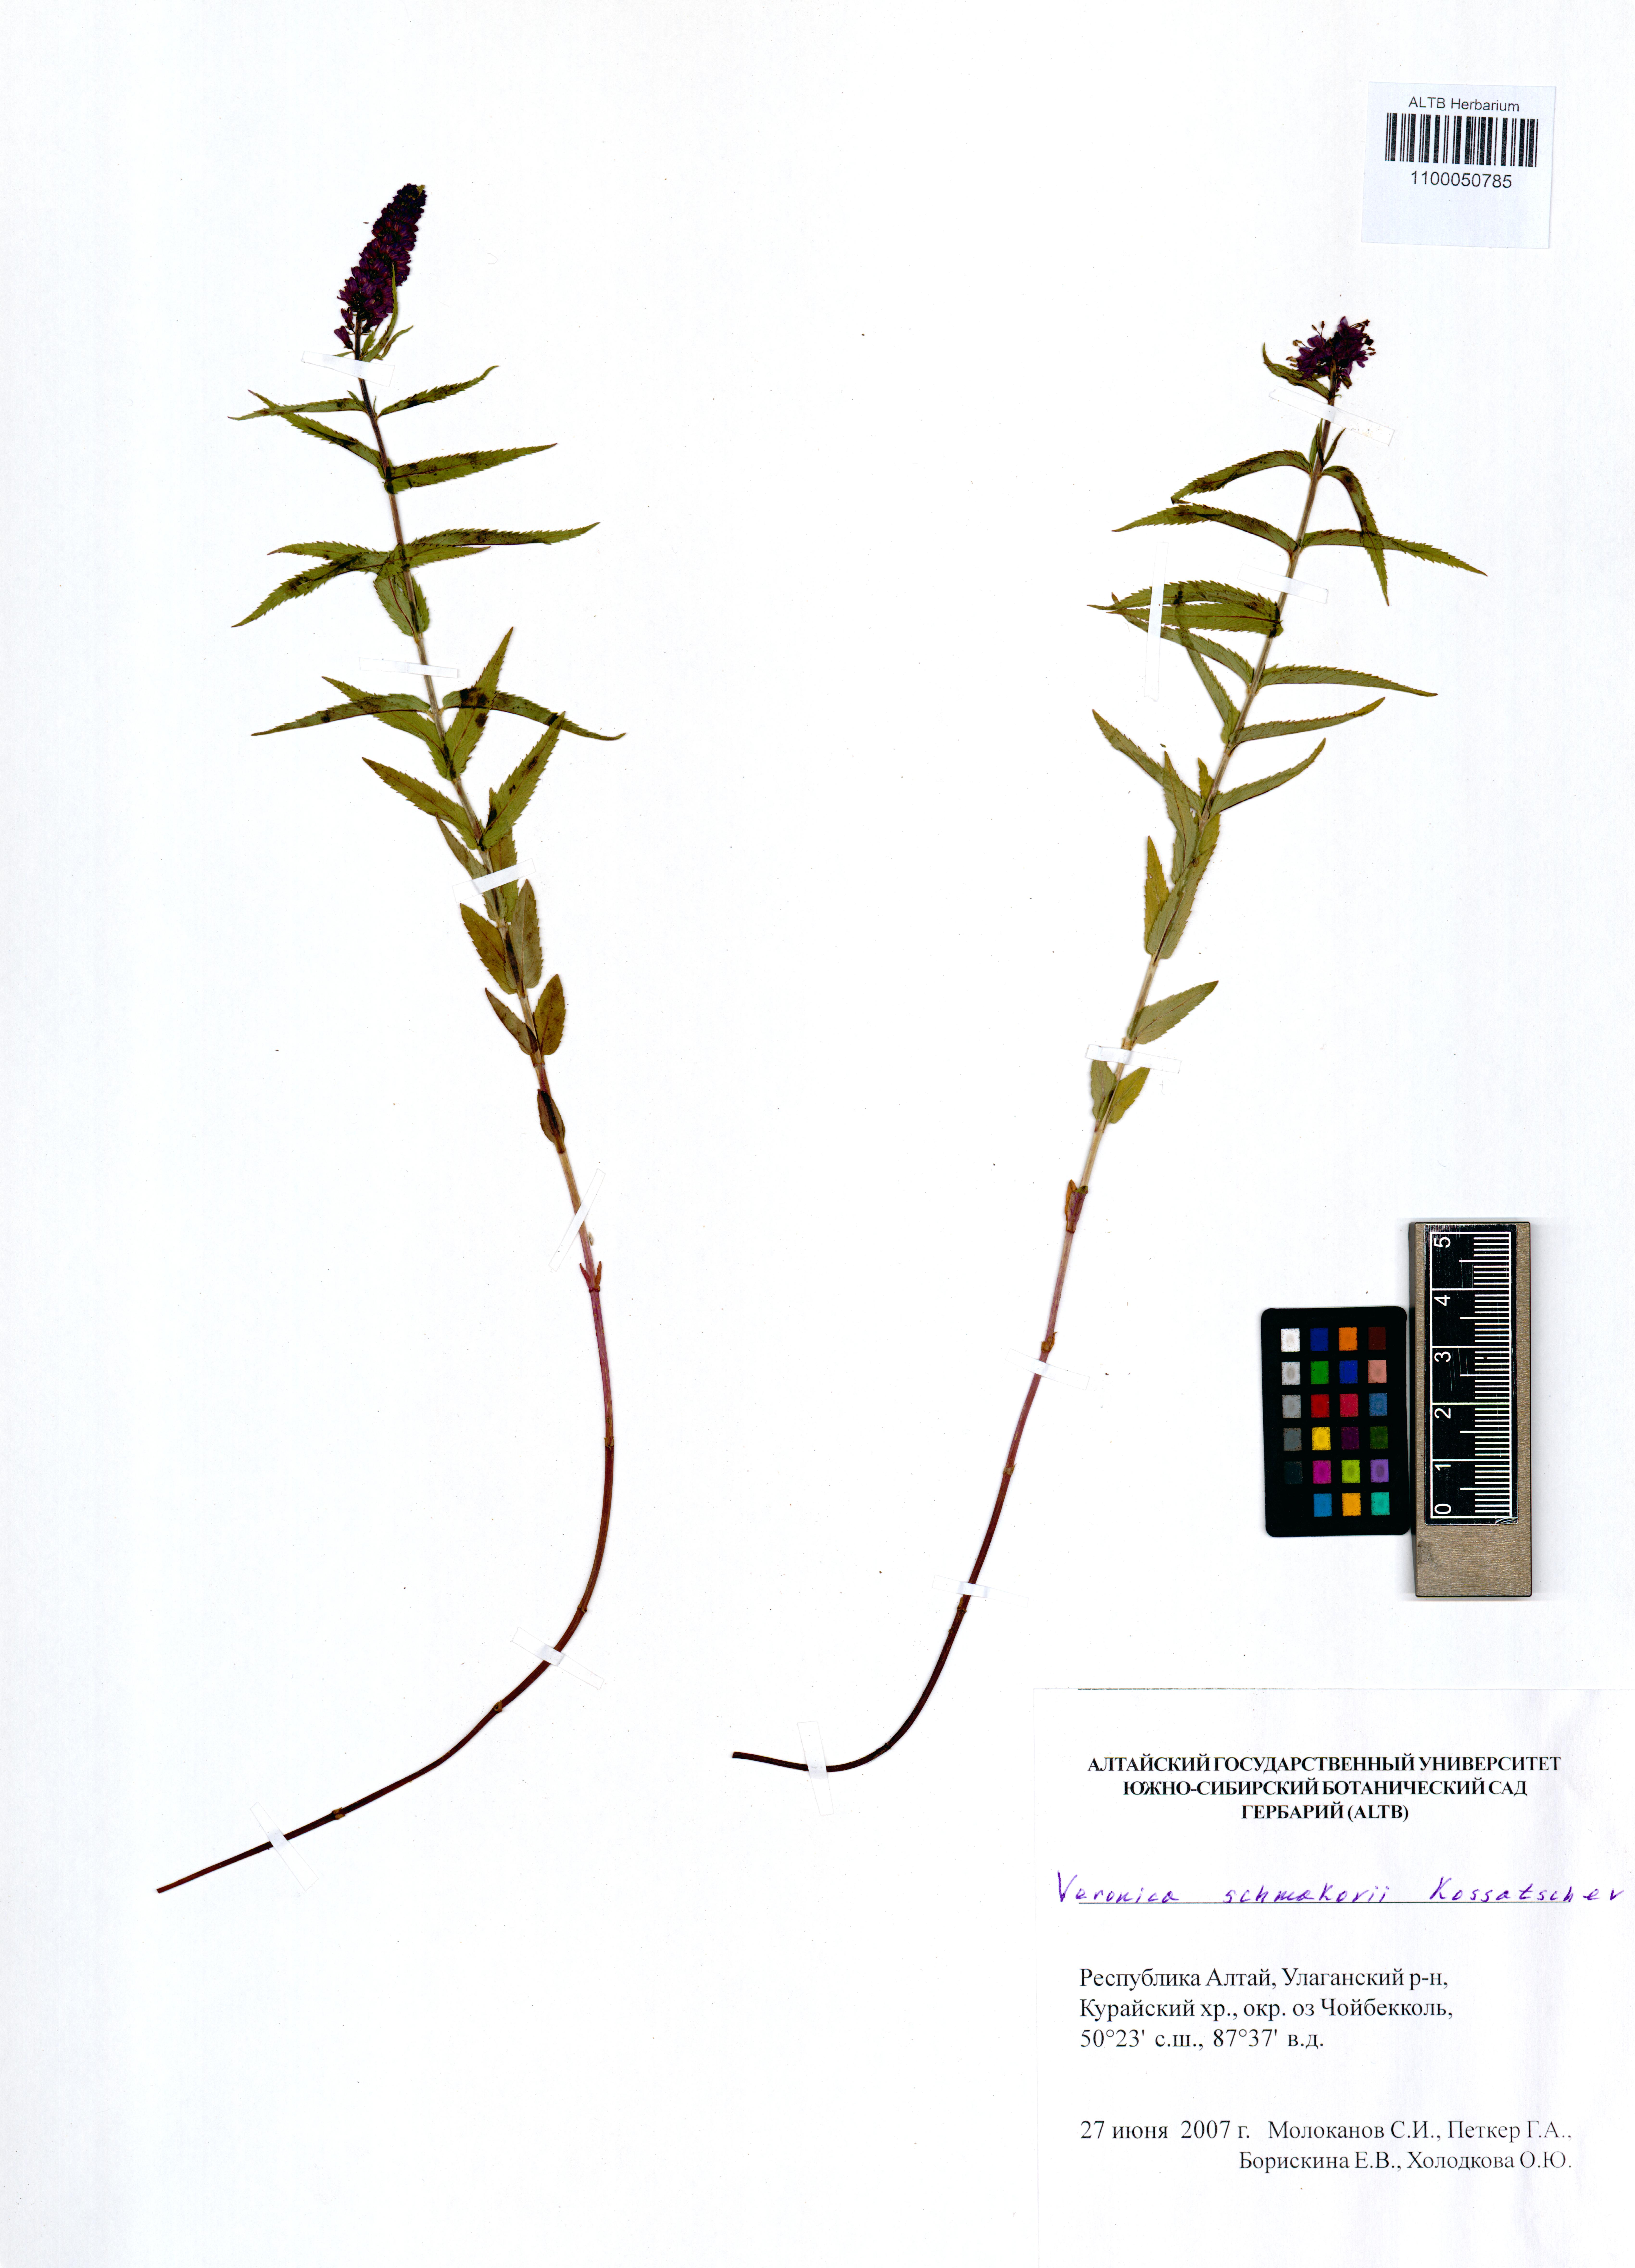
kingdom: Plantae
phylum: Tracheophyta
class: Magnoliopsida
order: Lamiales
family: Plantaginaceae
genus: Veronica
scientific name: Veronica schmakovii
